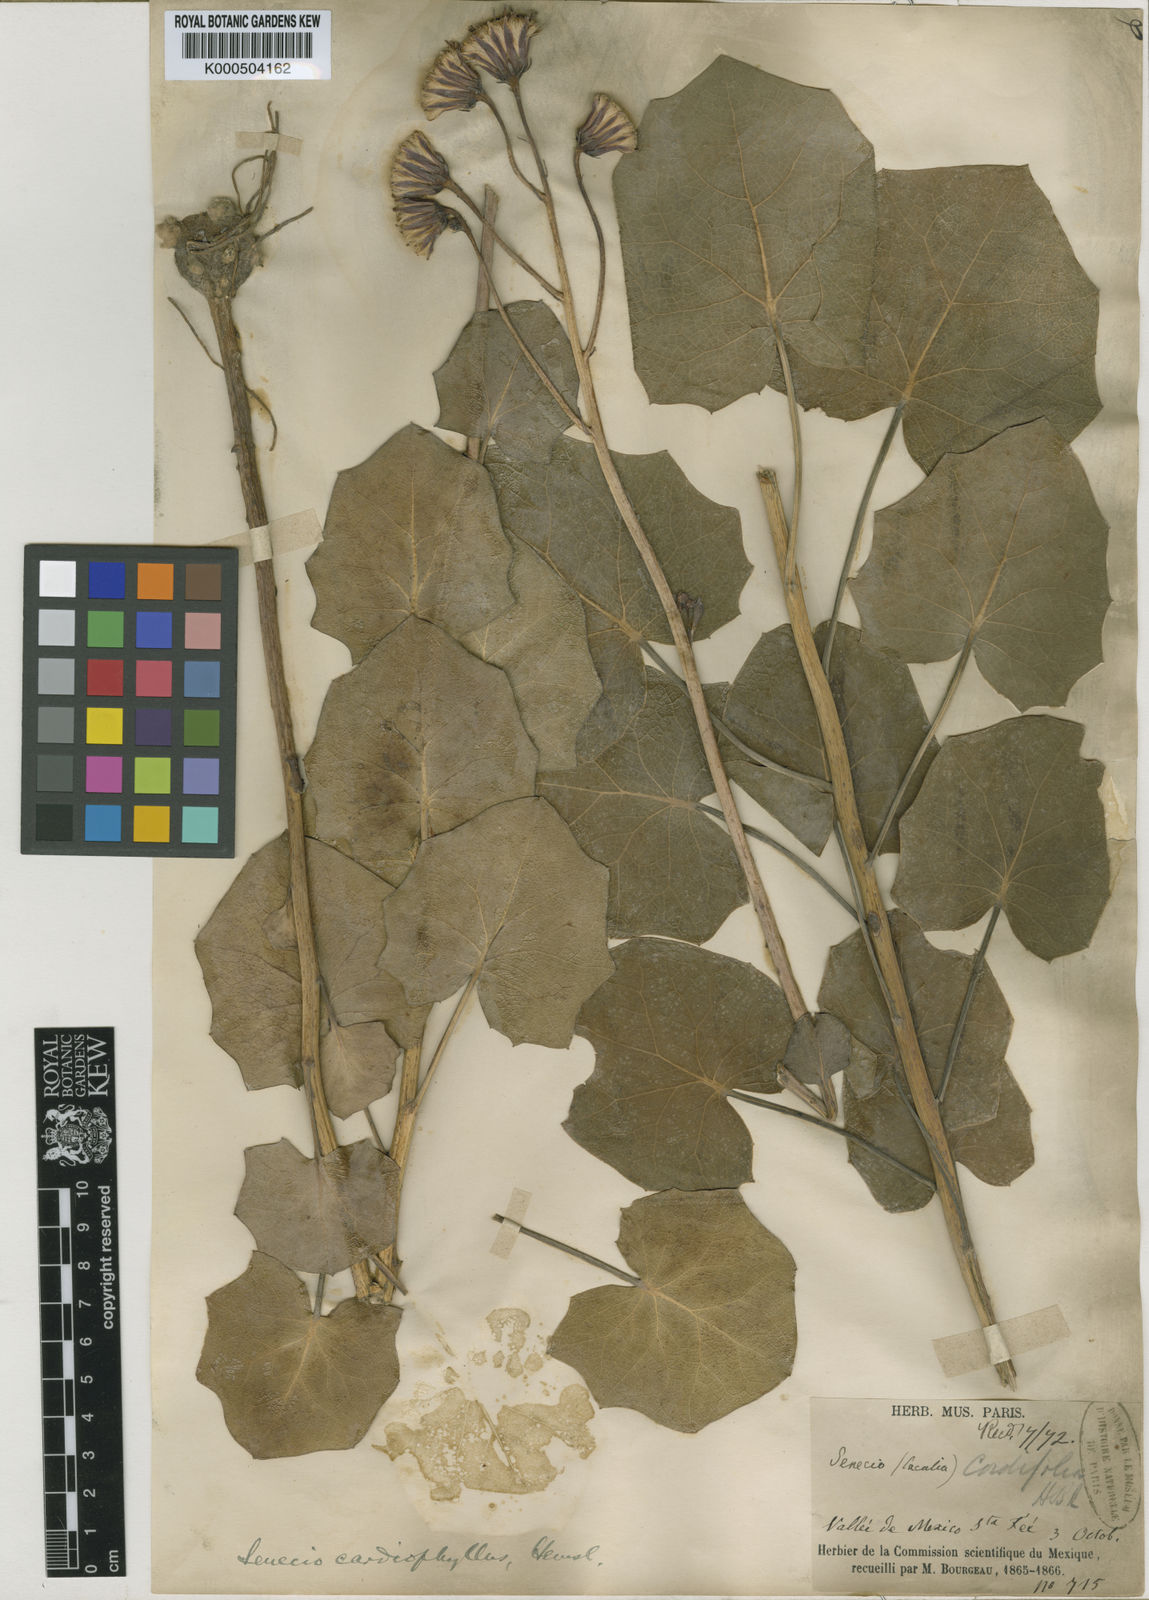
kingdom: Plantae
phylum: Tracheophyta
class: Magnoliopsida
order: Asterales
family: Asteraceae
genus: Roldana
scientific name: Roldana
